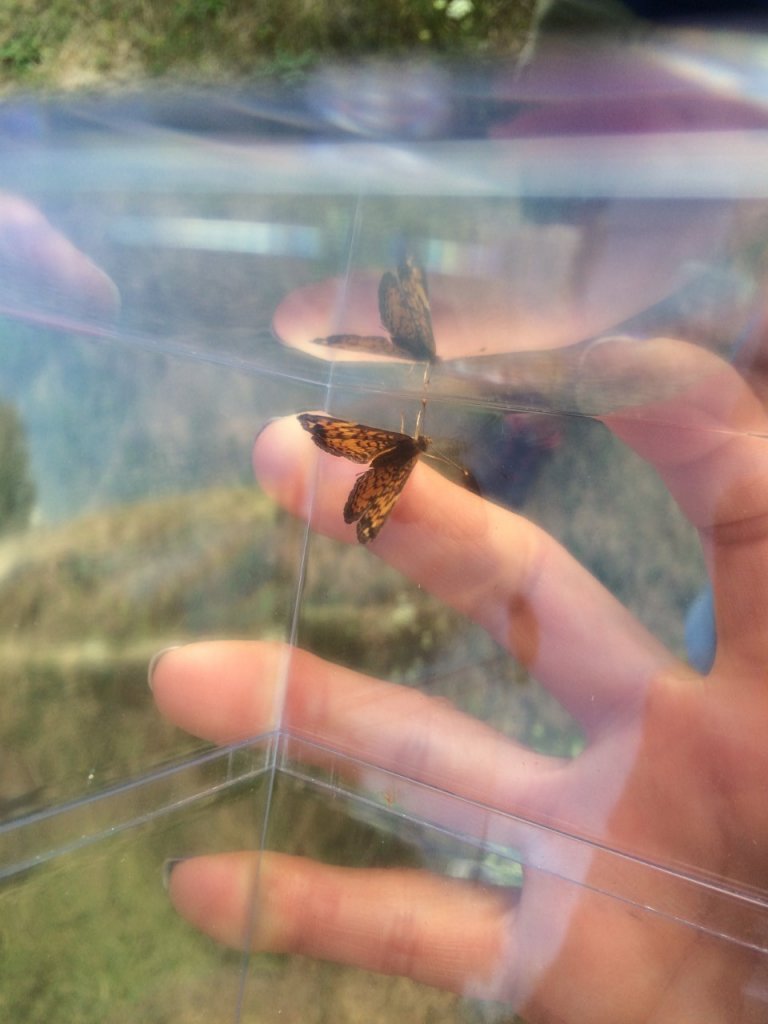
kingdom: Animalia
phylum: Arthropoda
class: Insecta
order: Lepidoptera
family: Nymphalidae
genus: Phyciodes
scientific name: Phyciodes tharos
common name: Pearl Crescent
